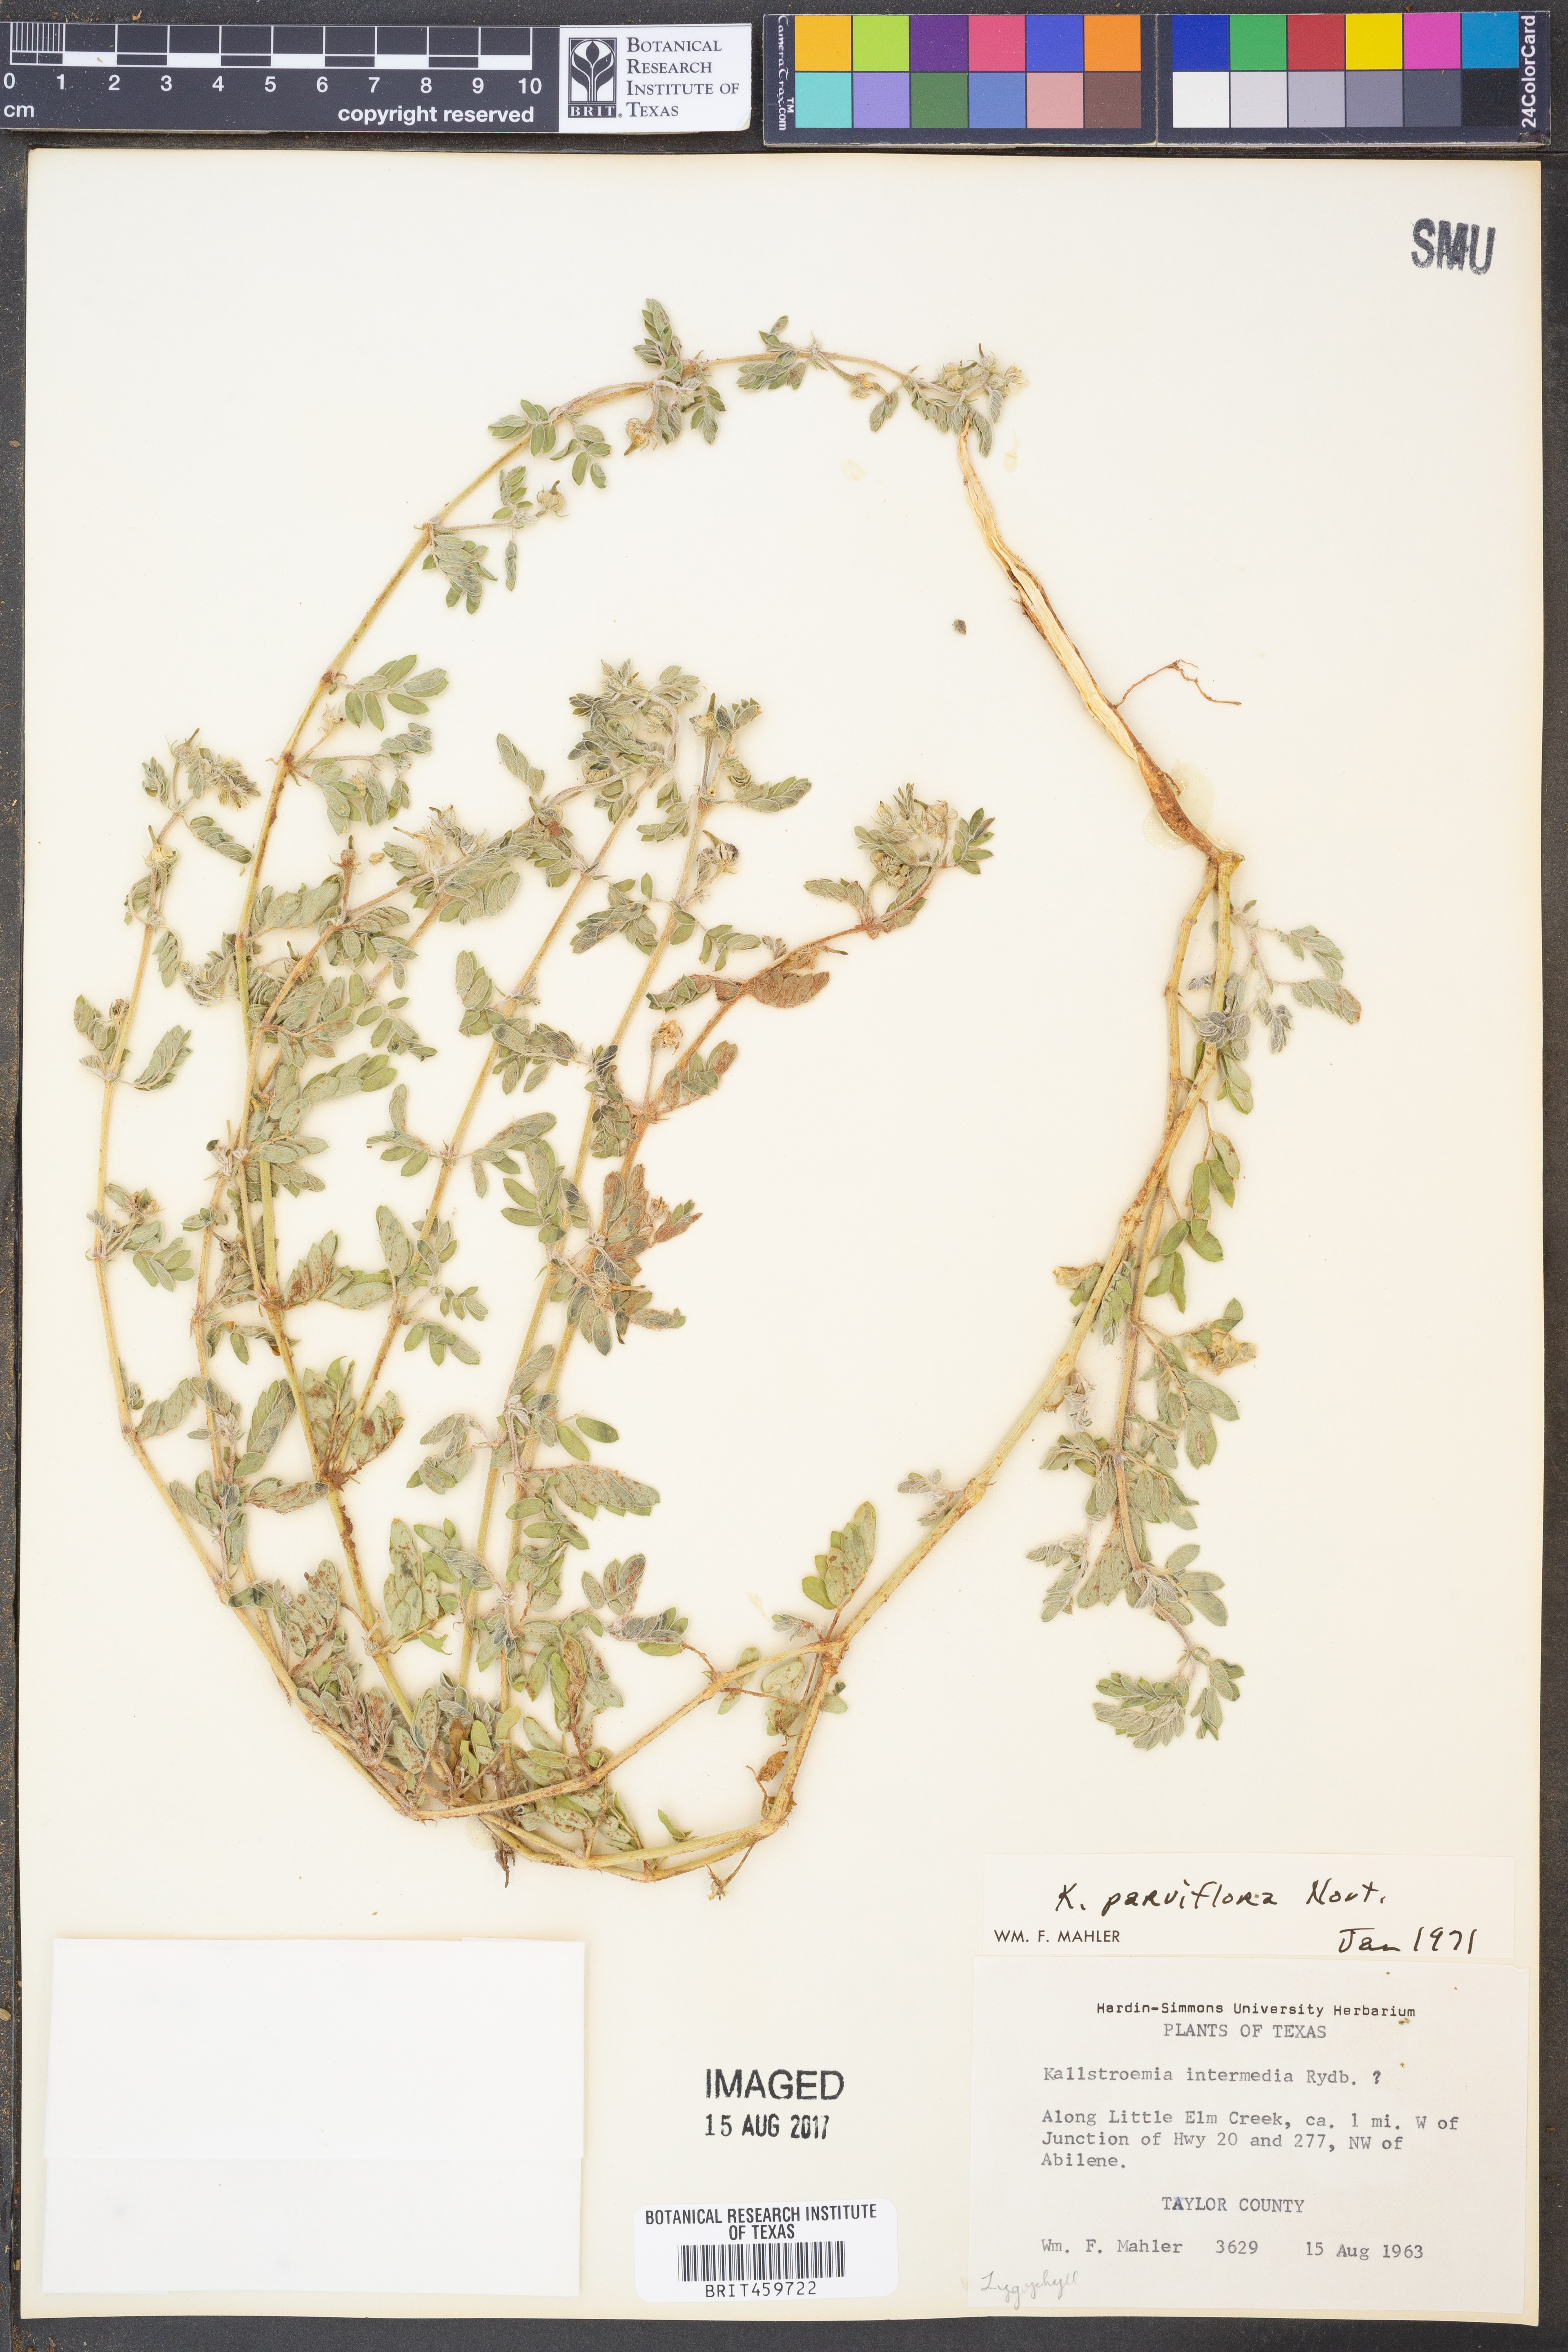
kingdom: Plantae
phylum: Tracheophyta
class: Magnoliopsida
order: Zygophyllales
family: Zygophyllaceae
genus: Kallstroemia
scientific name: Kallstroemia parviflora
